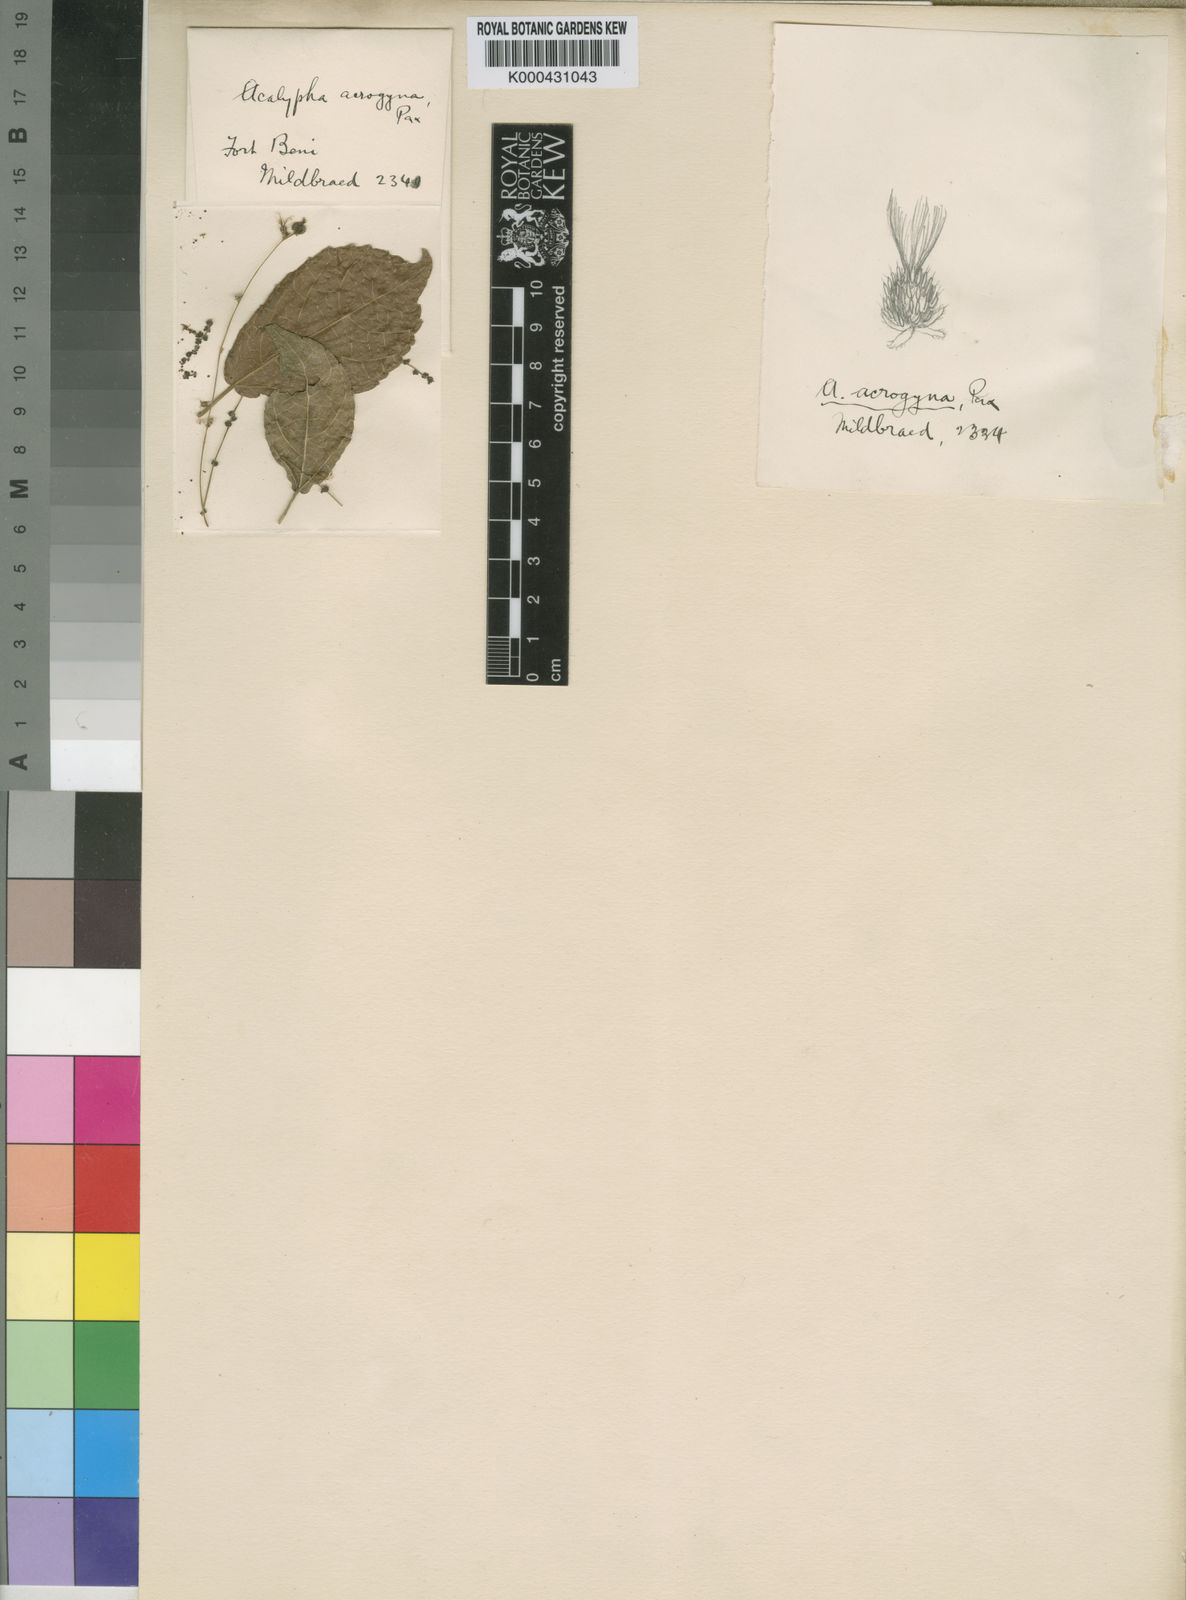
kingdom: Plantae
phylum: Tracheophyta
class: Magnoliopsida
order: Malpighiales
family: Euphorbiaceae
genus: Acalypha
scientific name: Acalypha acrogyna
